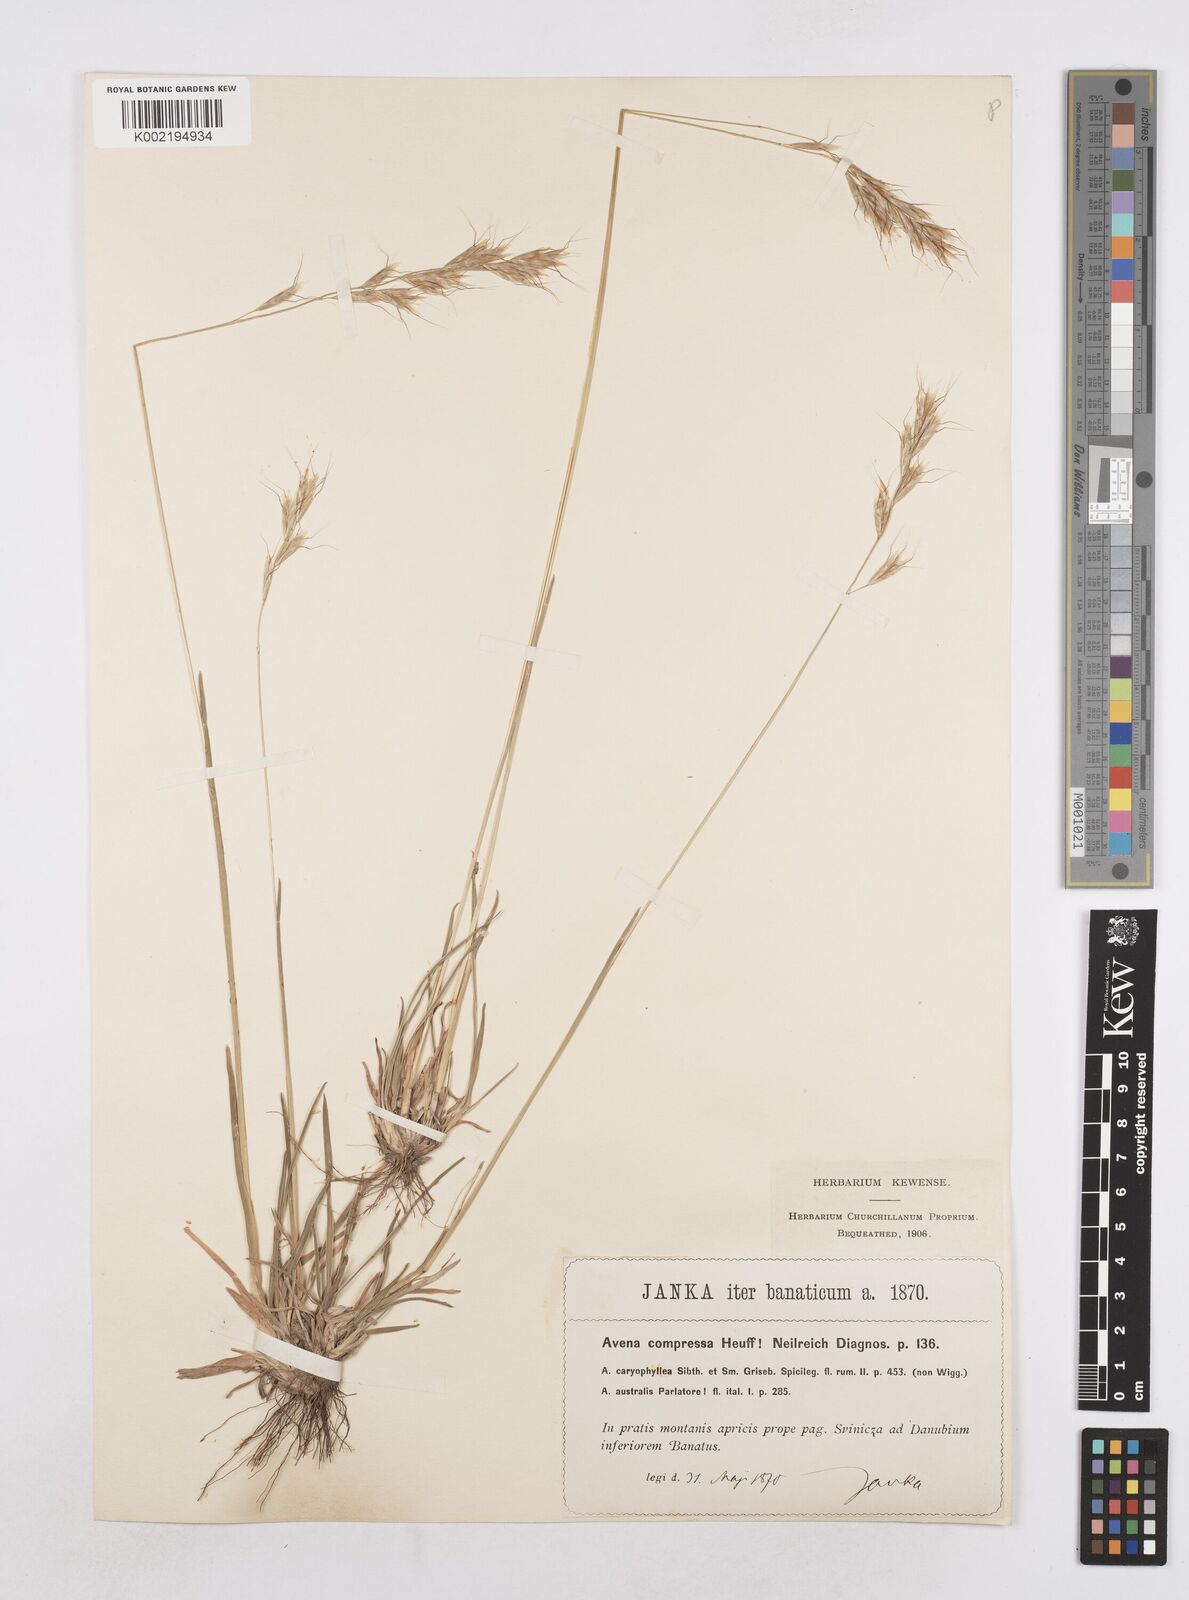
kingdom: Plantae
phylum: Tracheophyta
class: Liliopsida
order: Poales
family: Poaceae
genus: Helictochloa
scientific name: Helictochloa compressa
